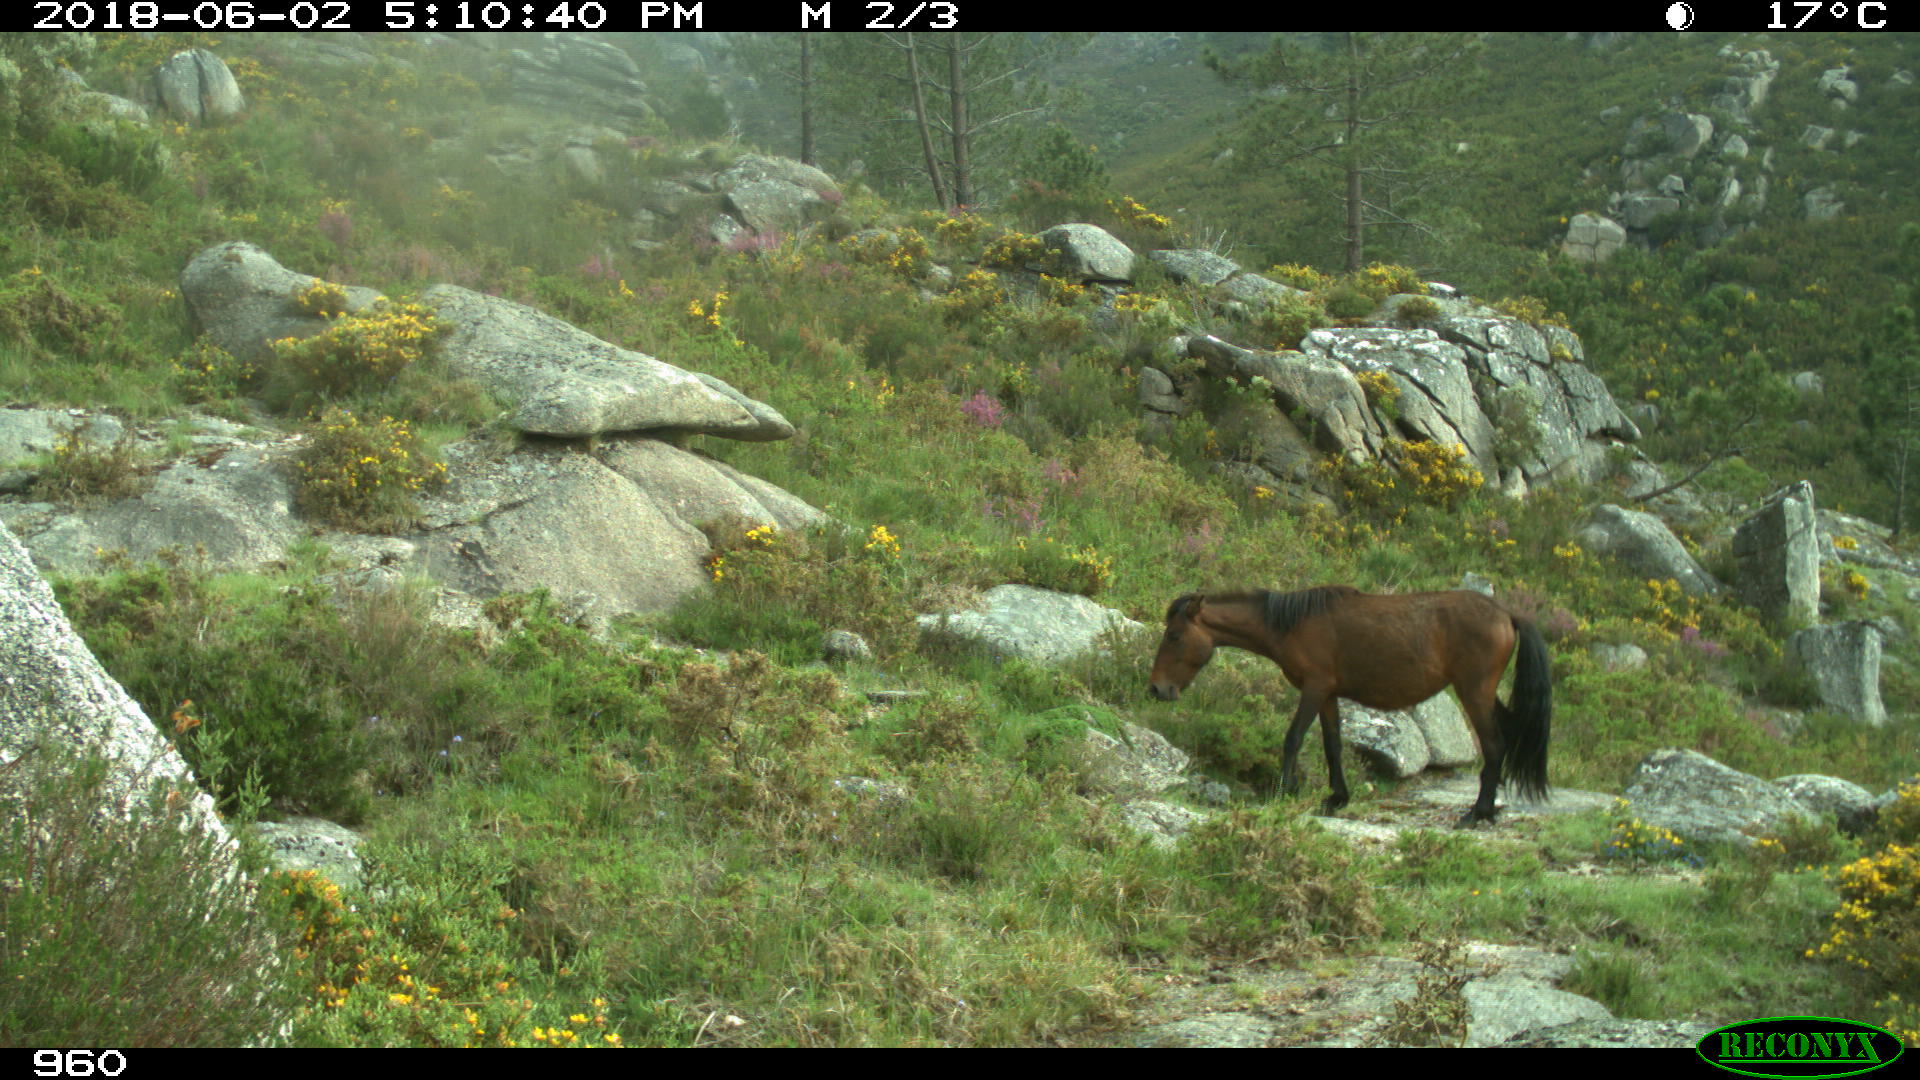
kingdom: Animalia
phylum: Chordata
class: Mammalia
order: Perissodactyla
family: Equidae
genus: Equus
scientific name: Equus caballus
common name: Horse
